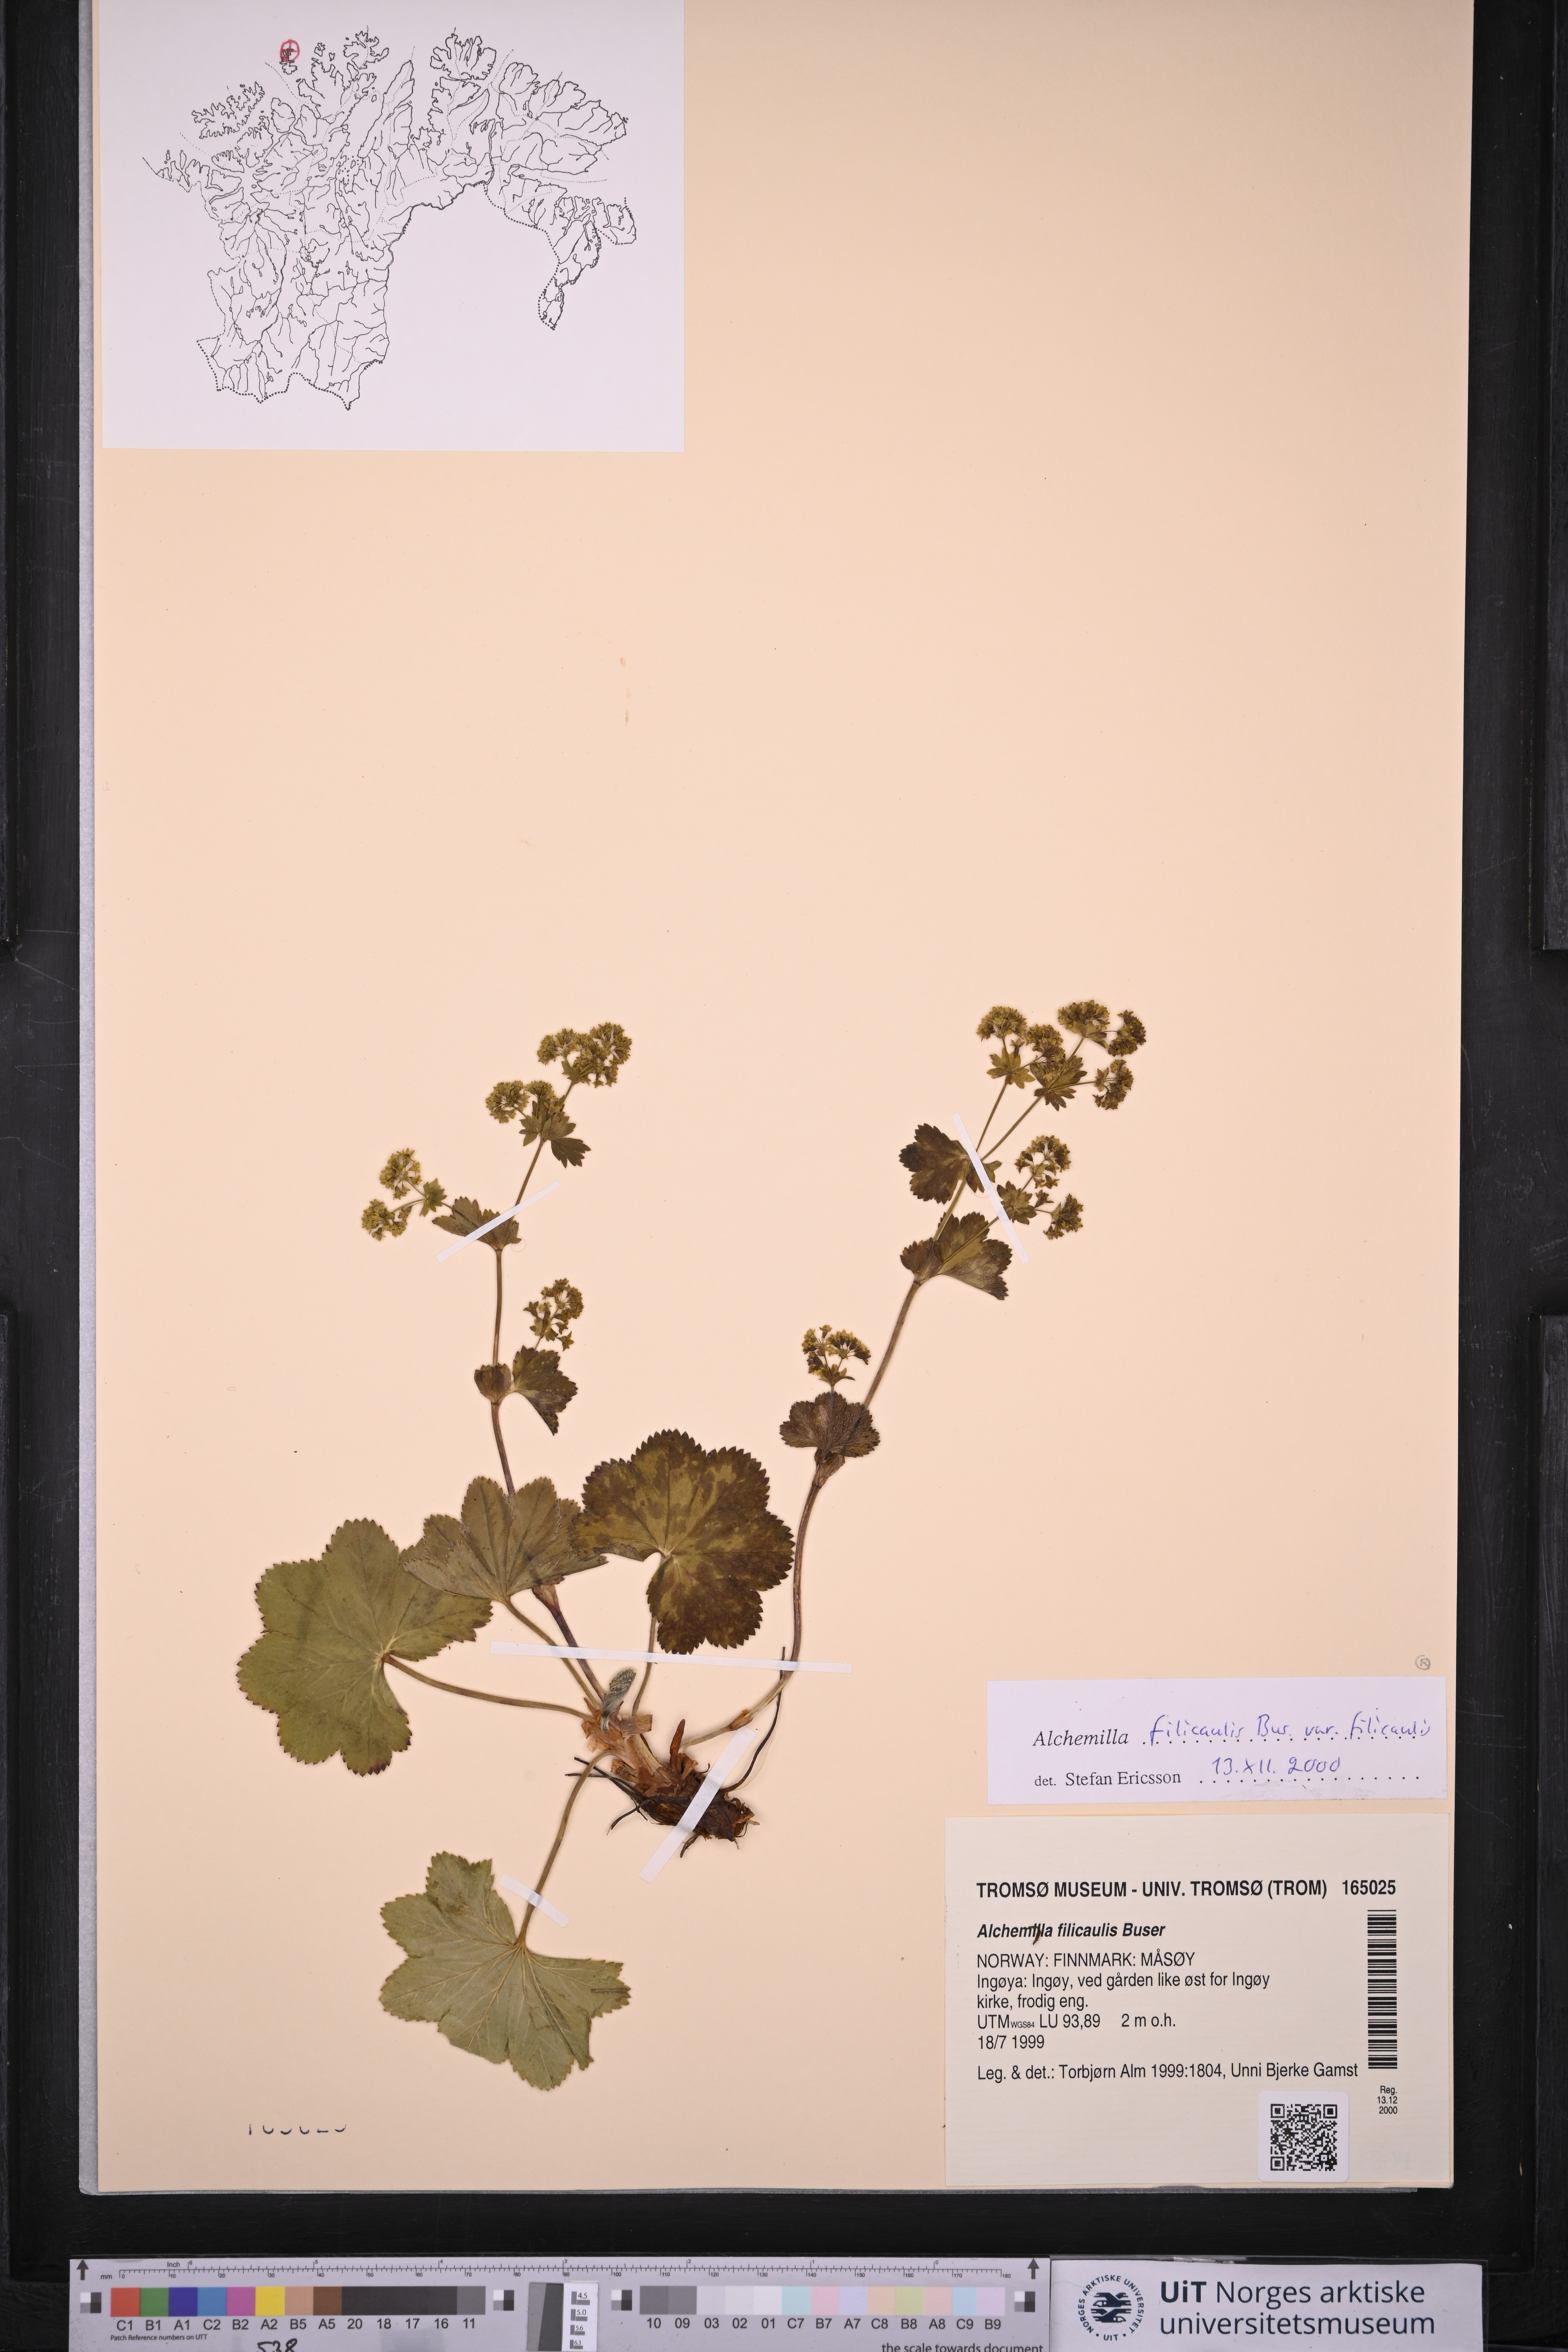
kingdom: Plantae
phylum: Tracheophyta
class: Magnoliopsida
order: Rosales
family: Rosaceae
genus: Alchemilla
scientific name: Alchemilla filicaulis
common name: Hairy lady's-mantle
